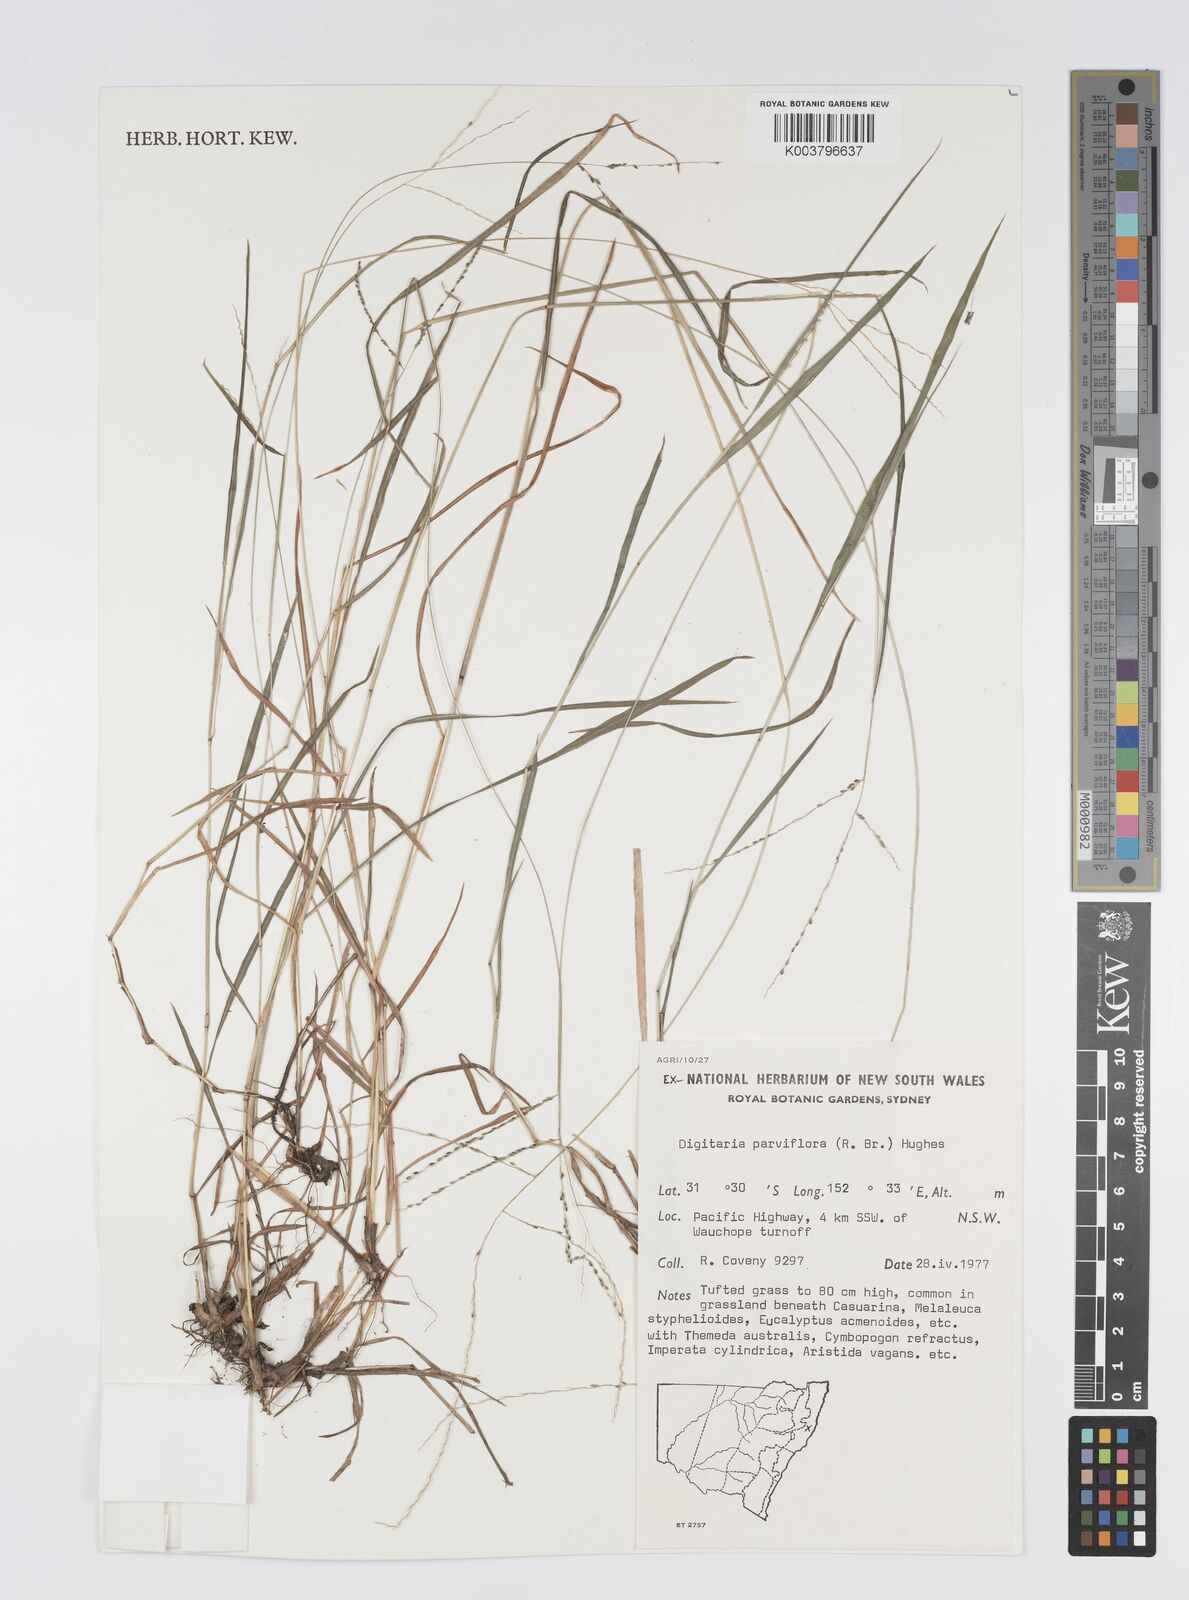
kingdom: Plantae
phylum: Tracheophyta
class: Liliopsida
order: Poales
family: Poaceae
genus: Digitaria
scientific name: Digitaria parviflora
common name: Small-flower finger grass
